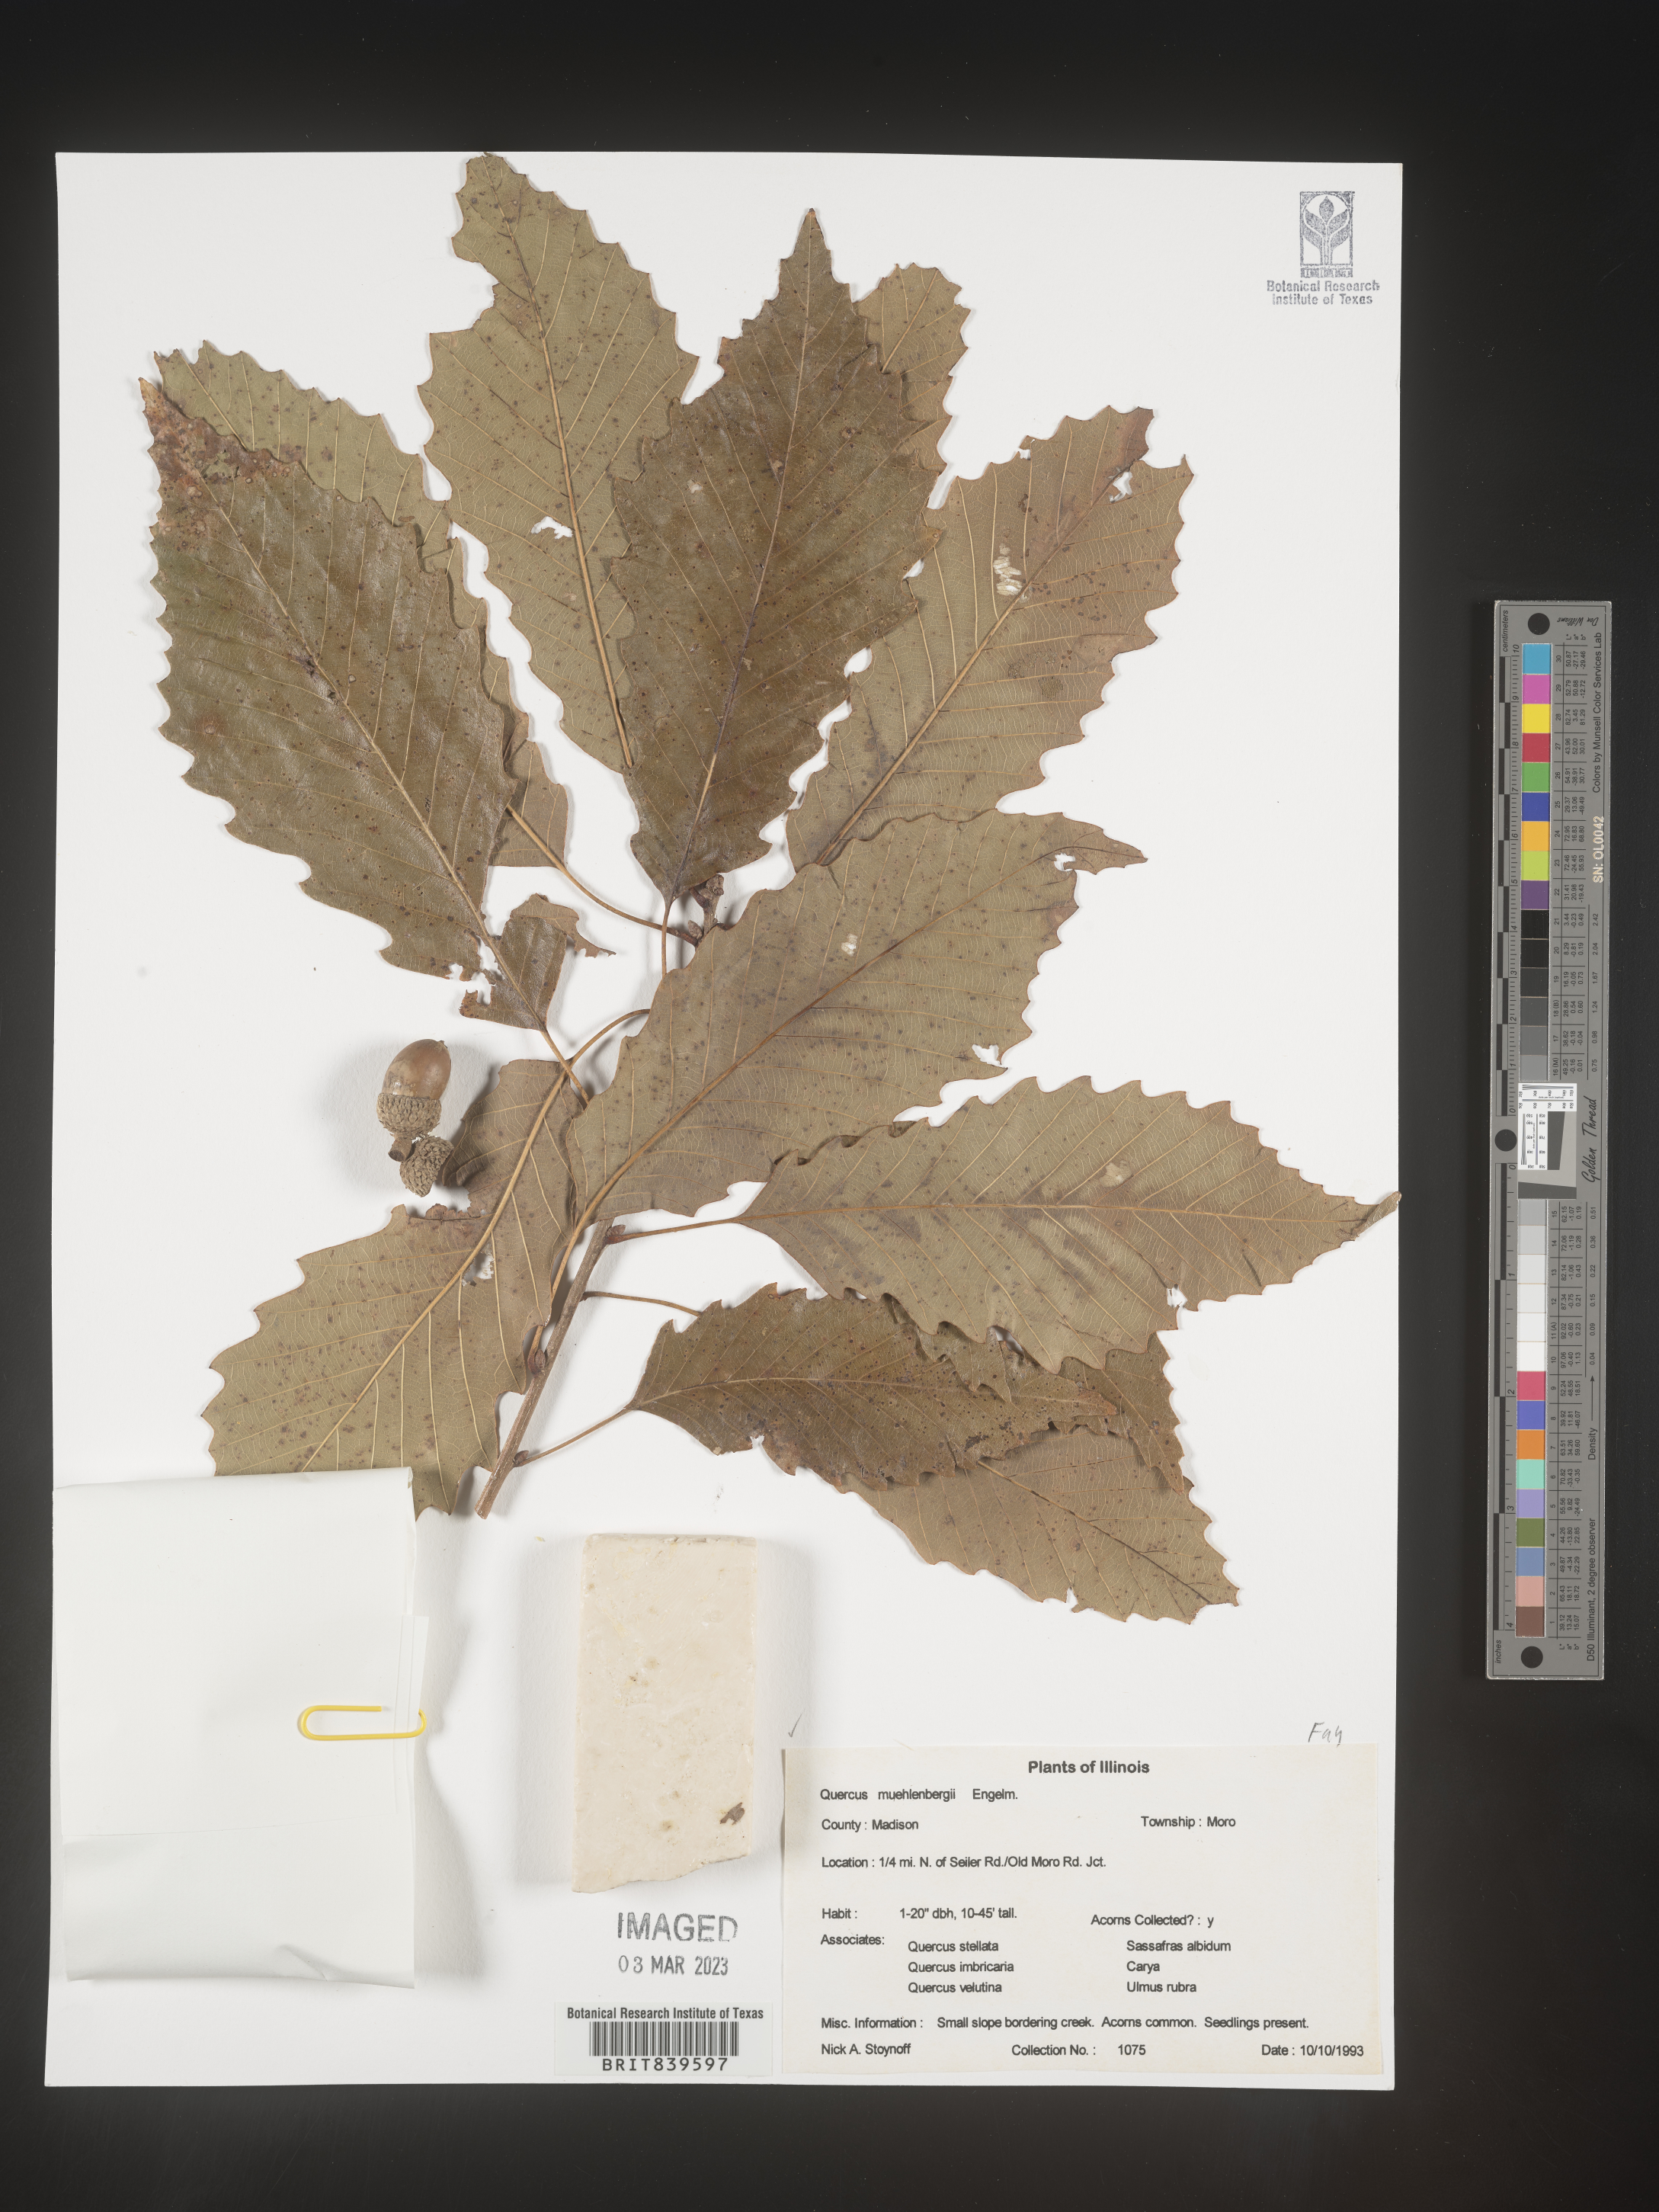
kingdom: Plantae
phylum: Tracheophyta
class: Magnoliopsida
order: Fagales
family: Fagaceae
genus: Quercus
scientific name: Quercus muehlenbergii
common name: Chinkapin oak
